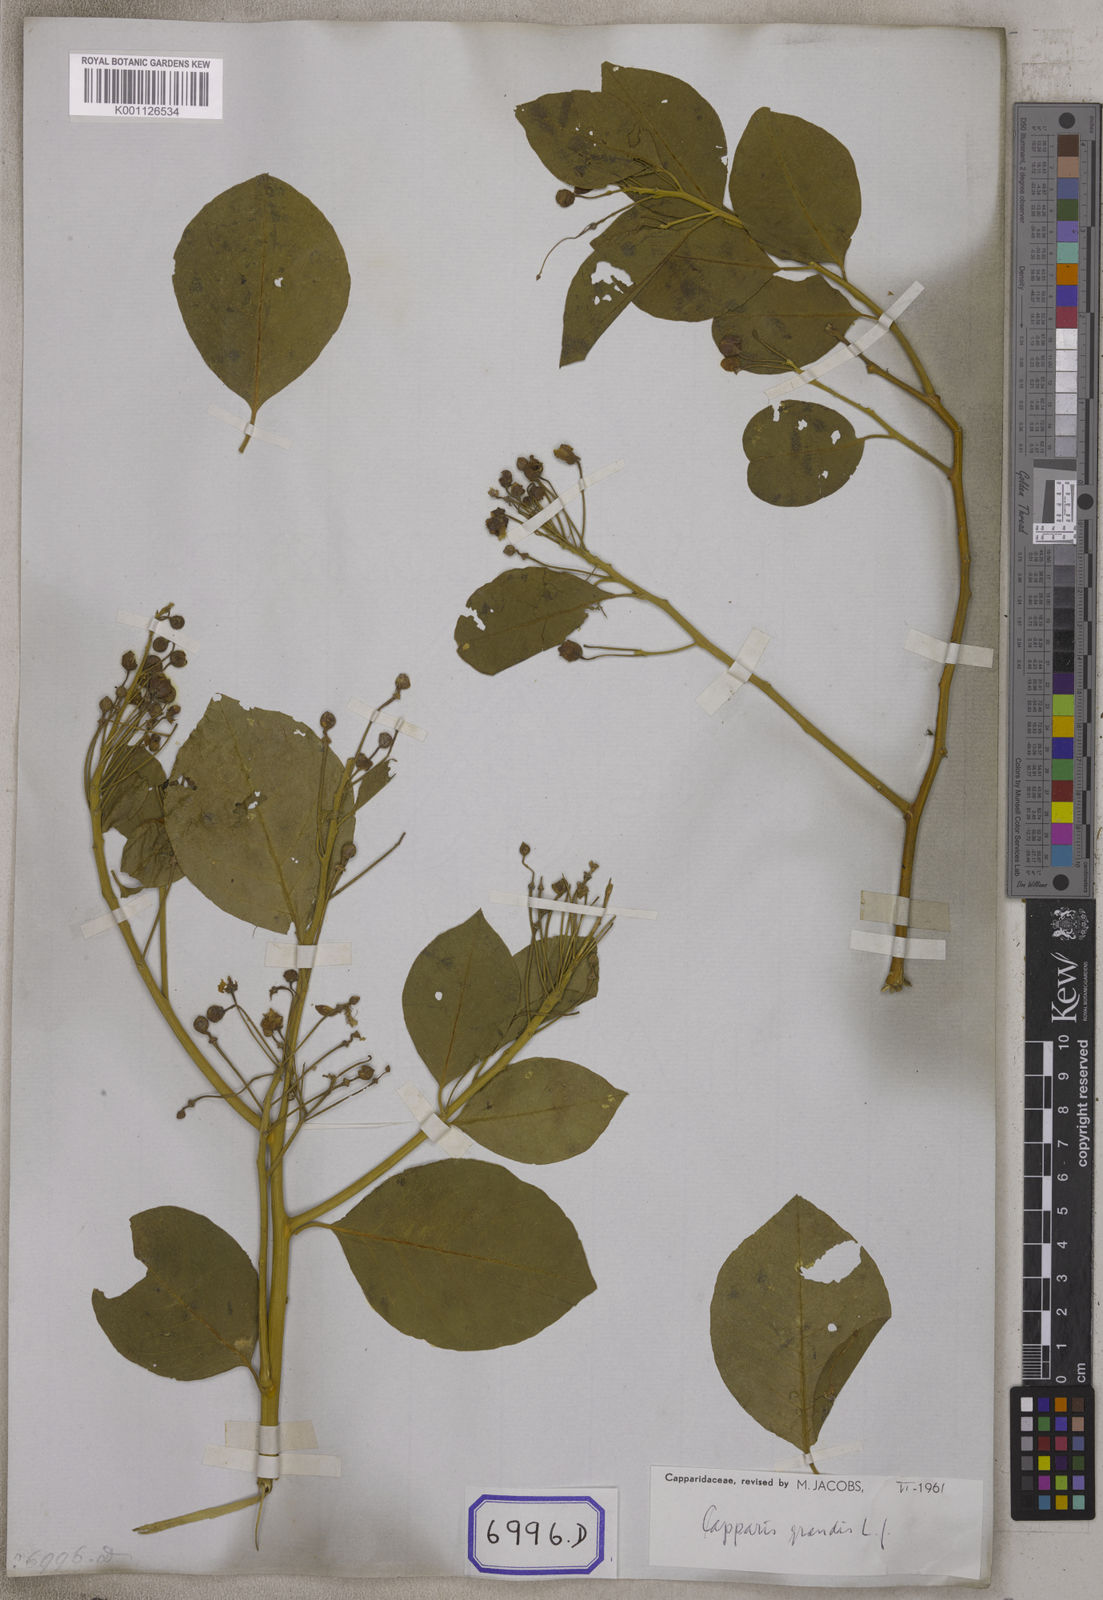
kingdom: Plantae
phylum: Tracheophyta
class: Magnoliopsida
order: Brassicales
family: Capparaceae
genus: Capparis
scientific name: Capparis grandis
